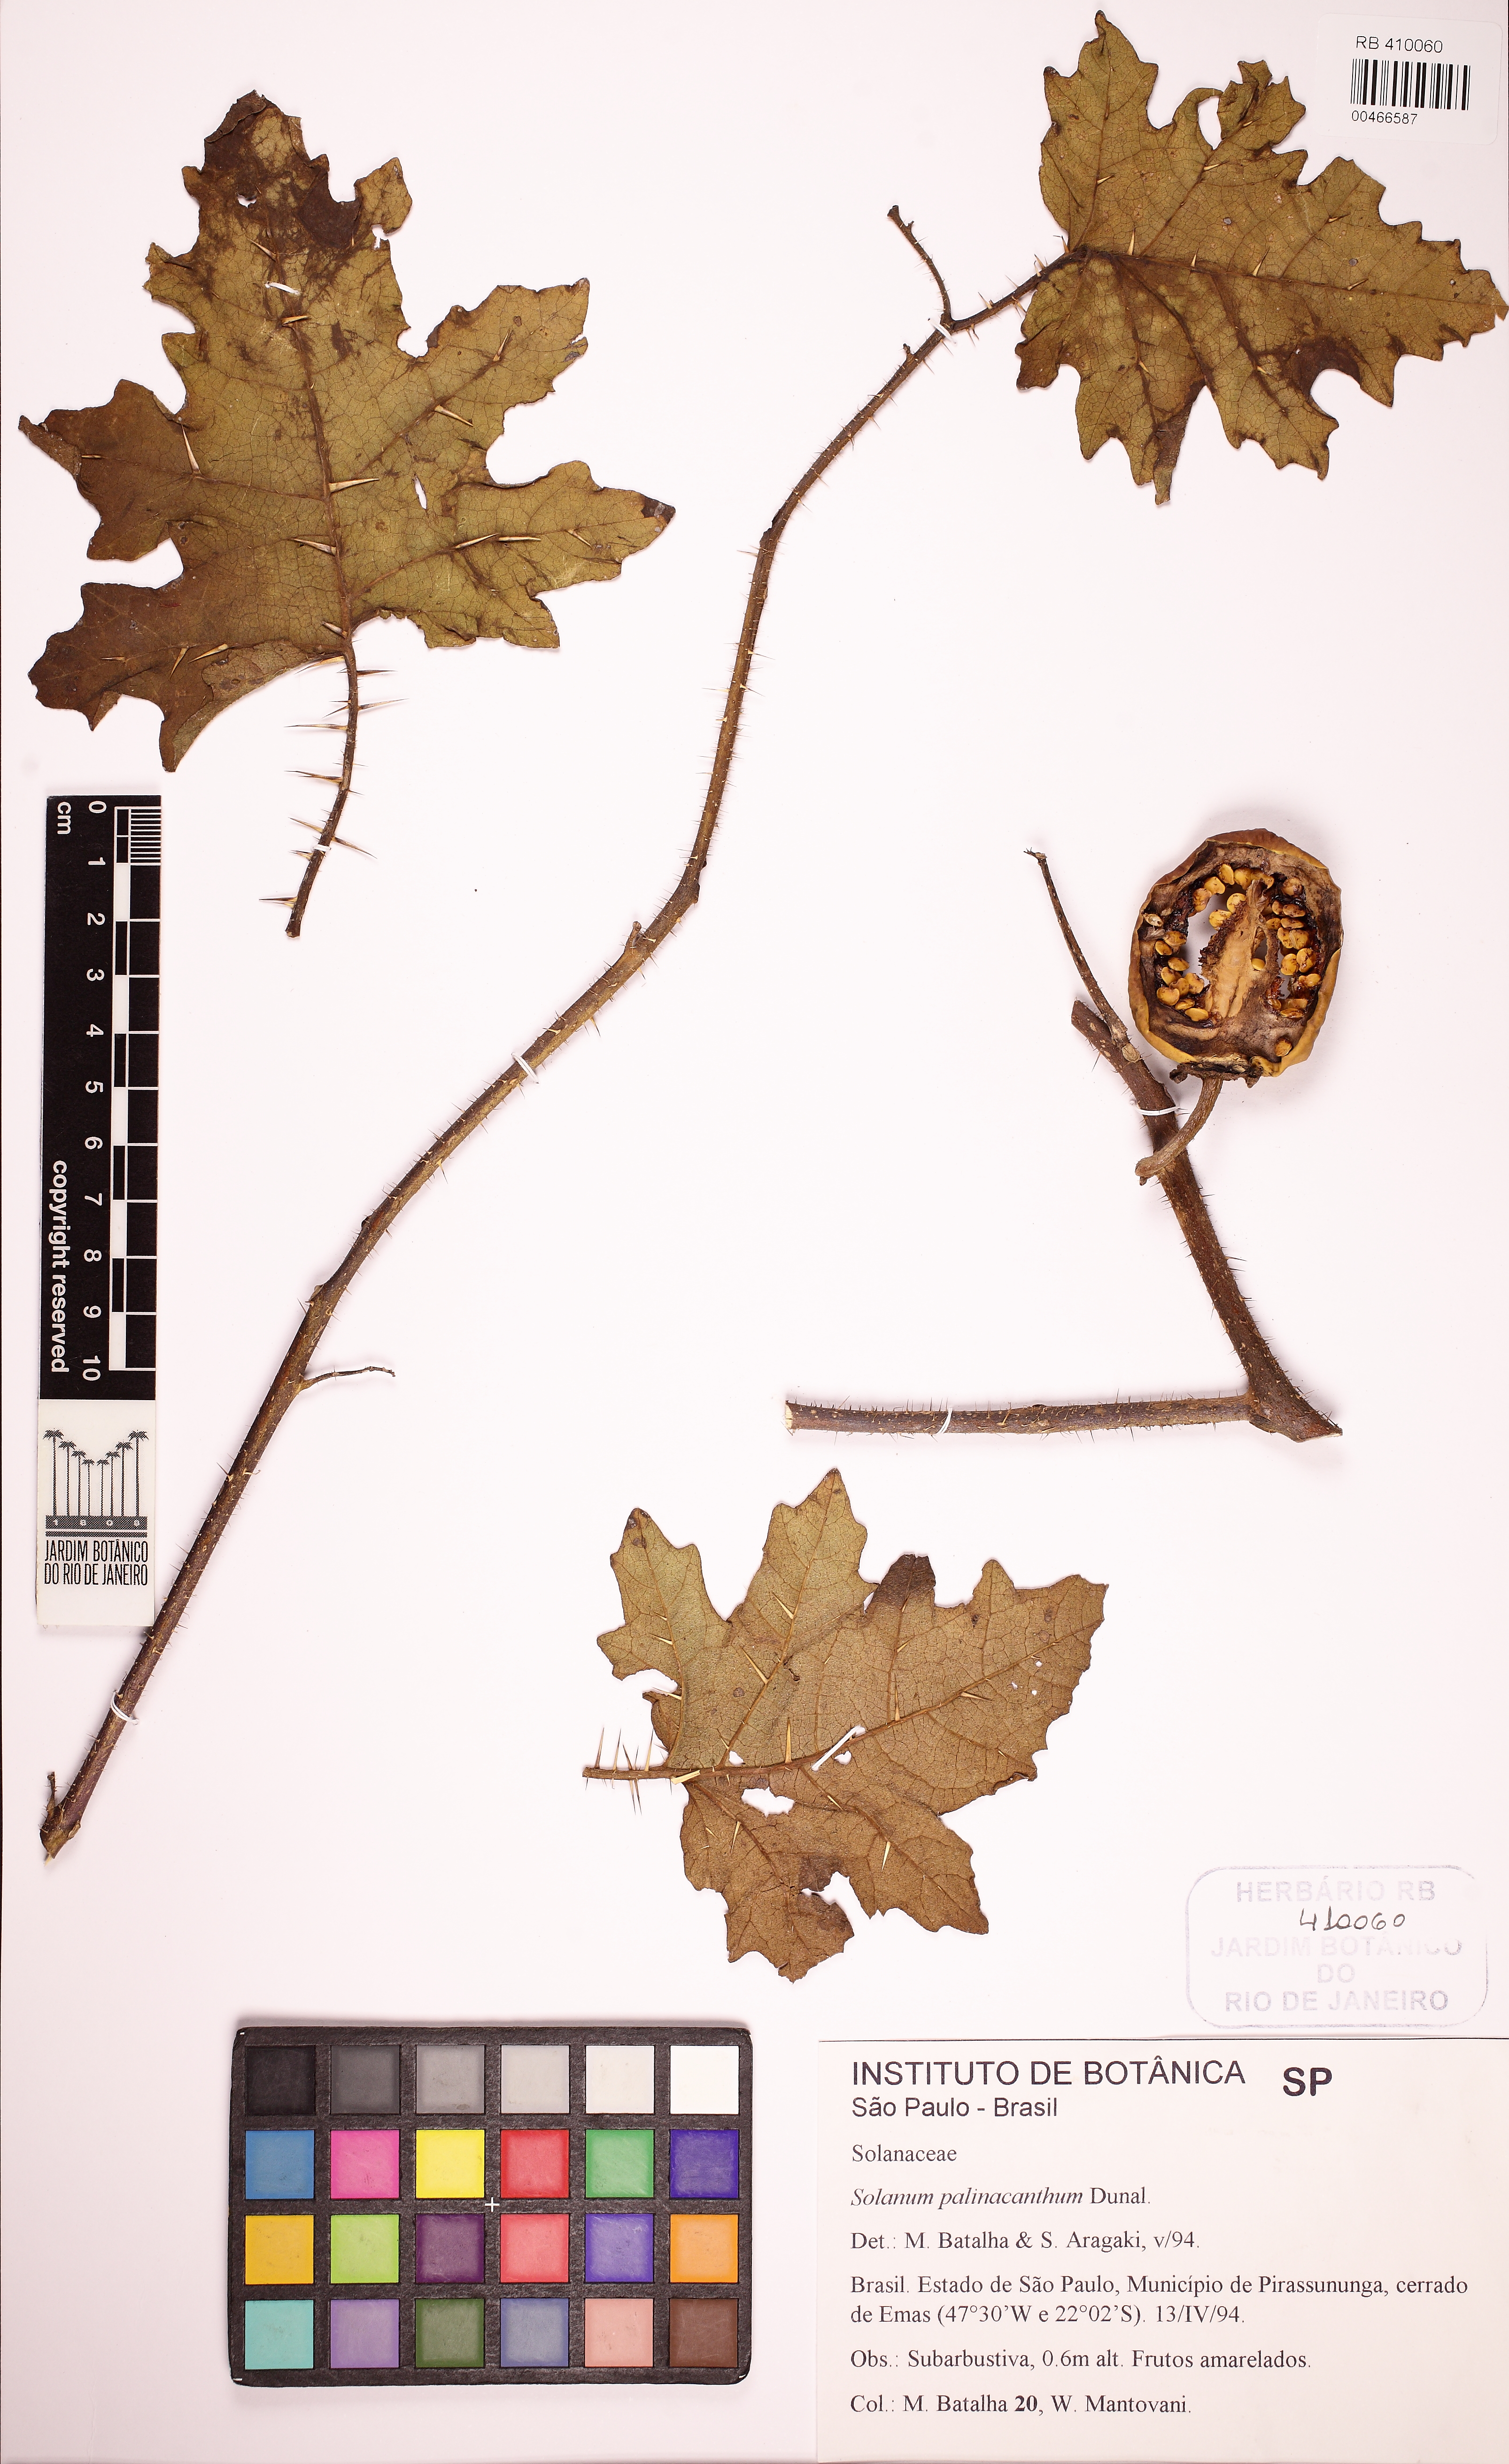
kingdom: Plantae
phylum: Tracheophyta
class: Magnoliopsida
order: Solanales
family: Solanaceae
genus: Solanum
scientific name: Solanum palinacanthum
